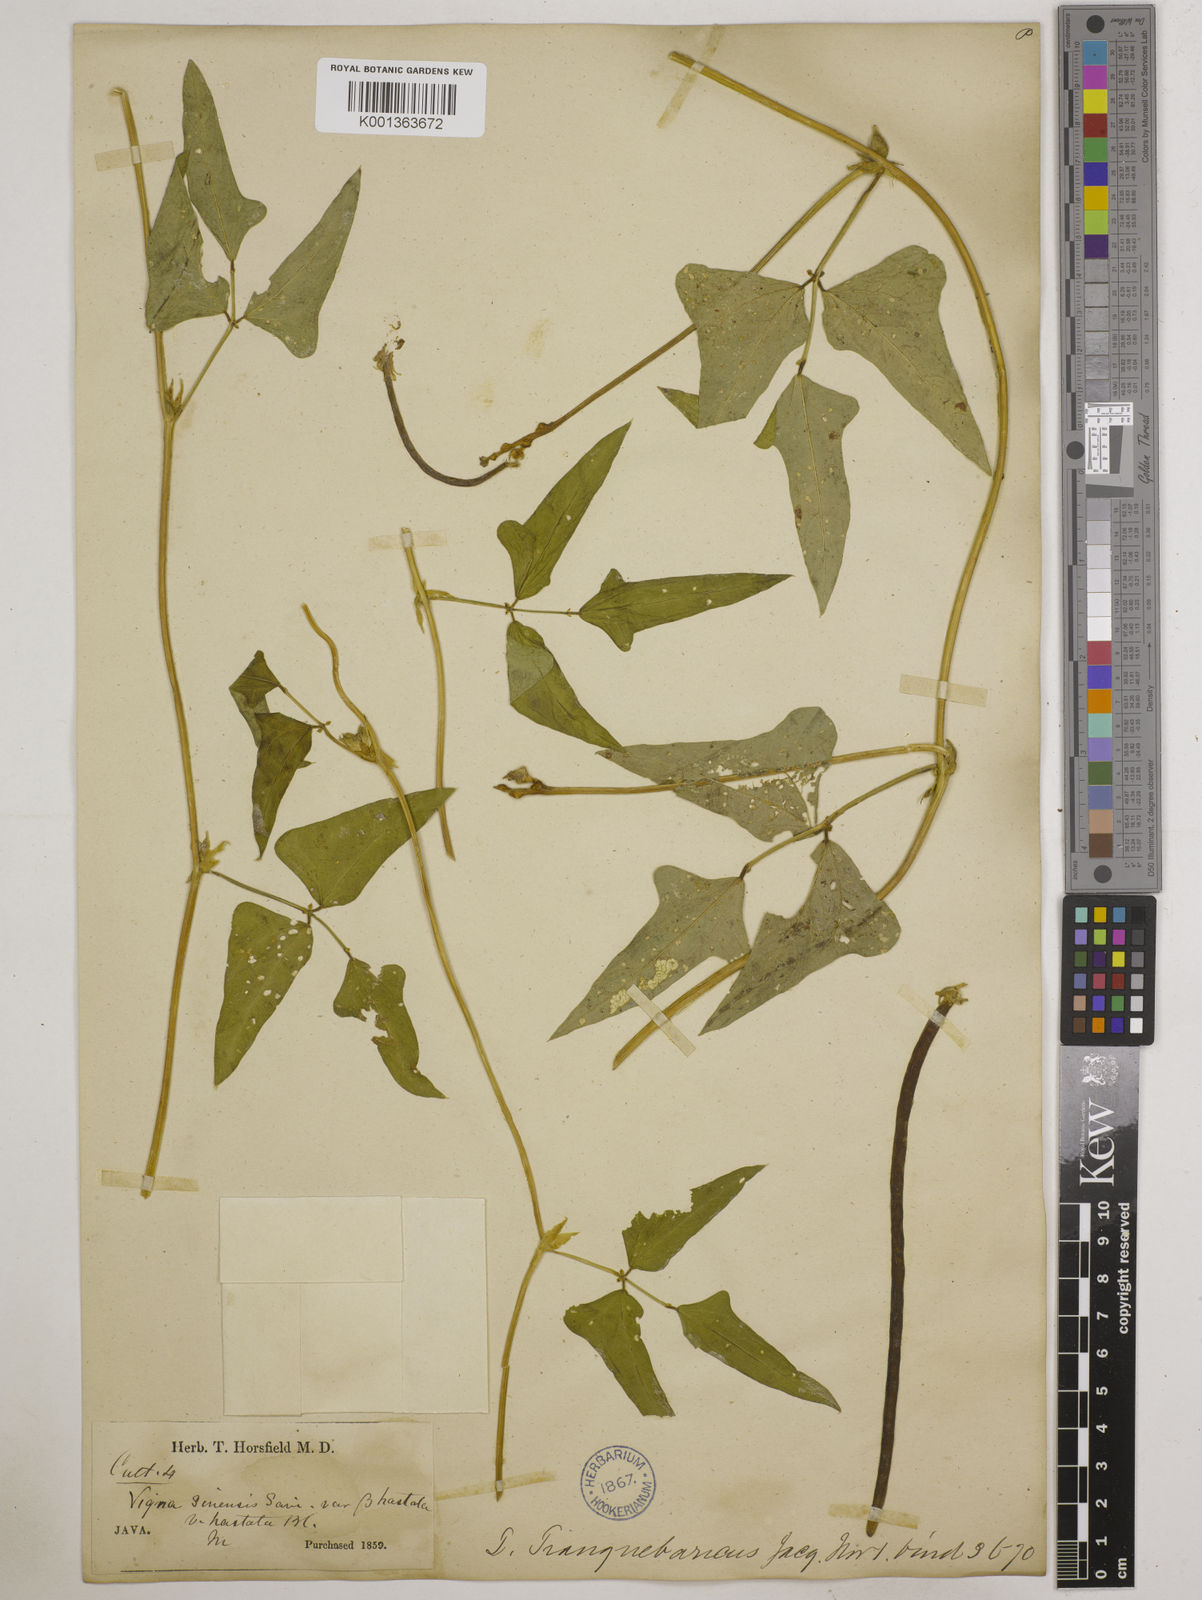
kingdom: Plantae
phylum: Tracheophyta
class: Magnoliopsida
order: Fabales
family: Fabaceae
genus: Vigna
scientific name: Vigna unguiculata
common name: Cowpea
